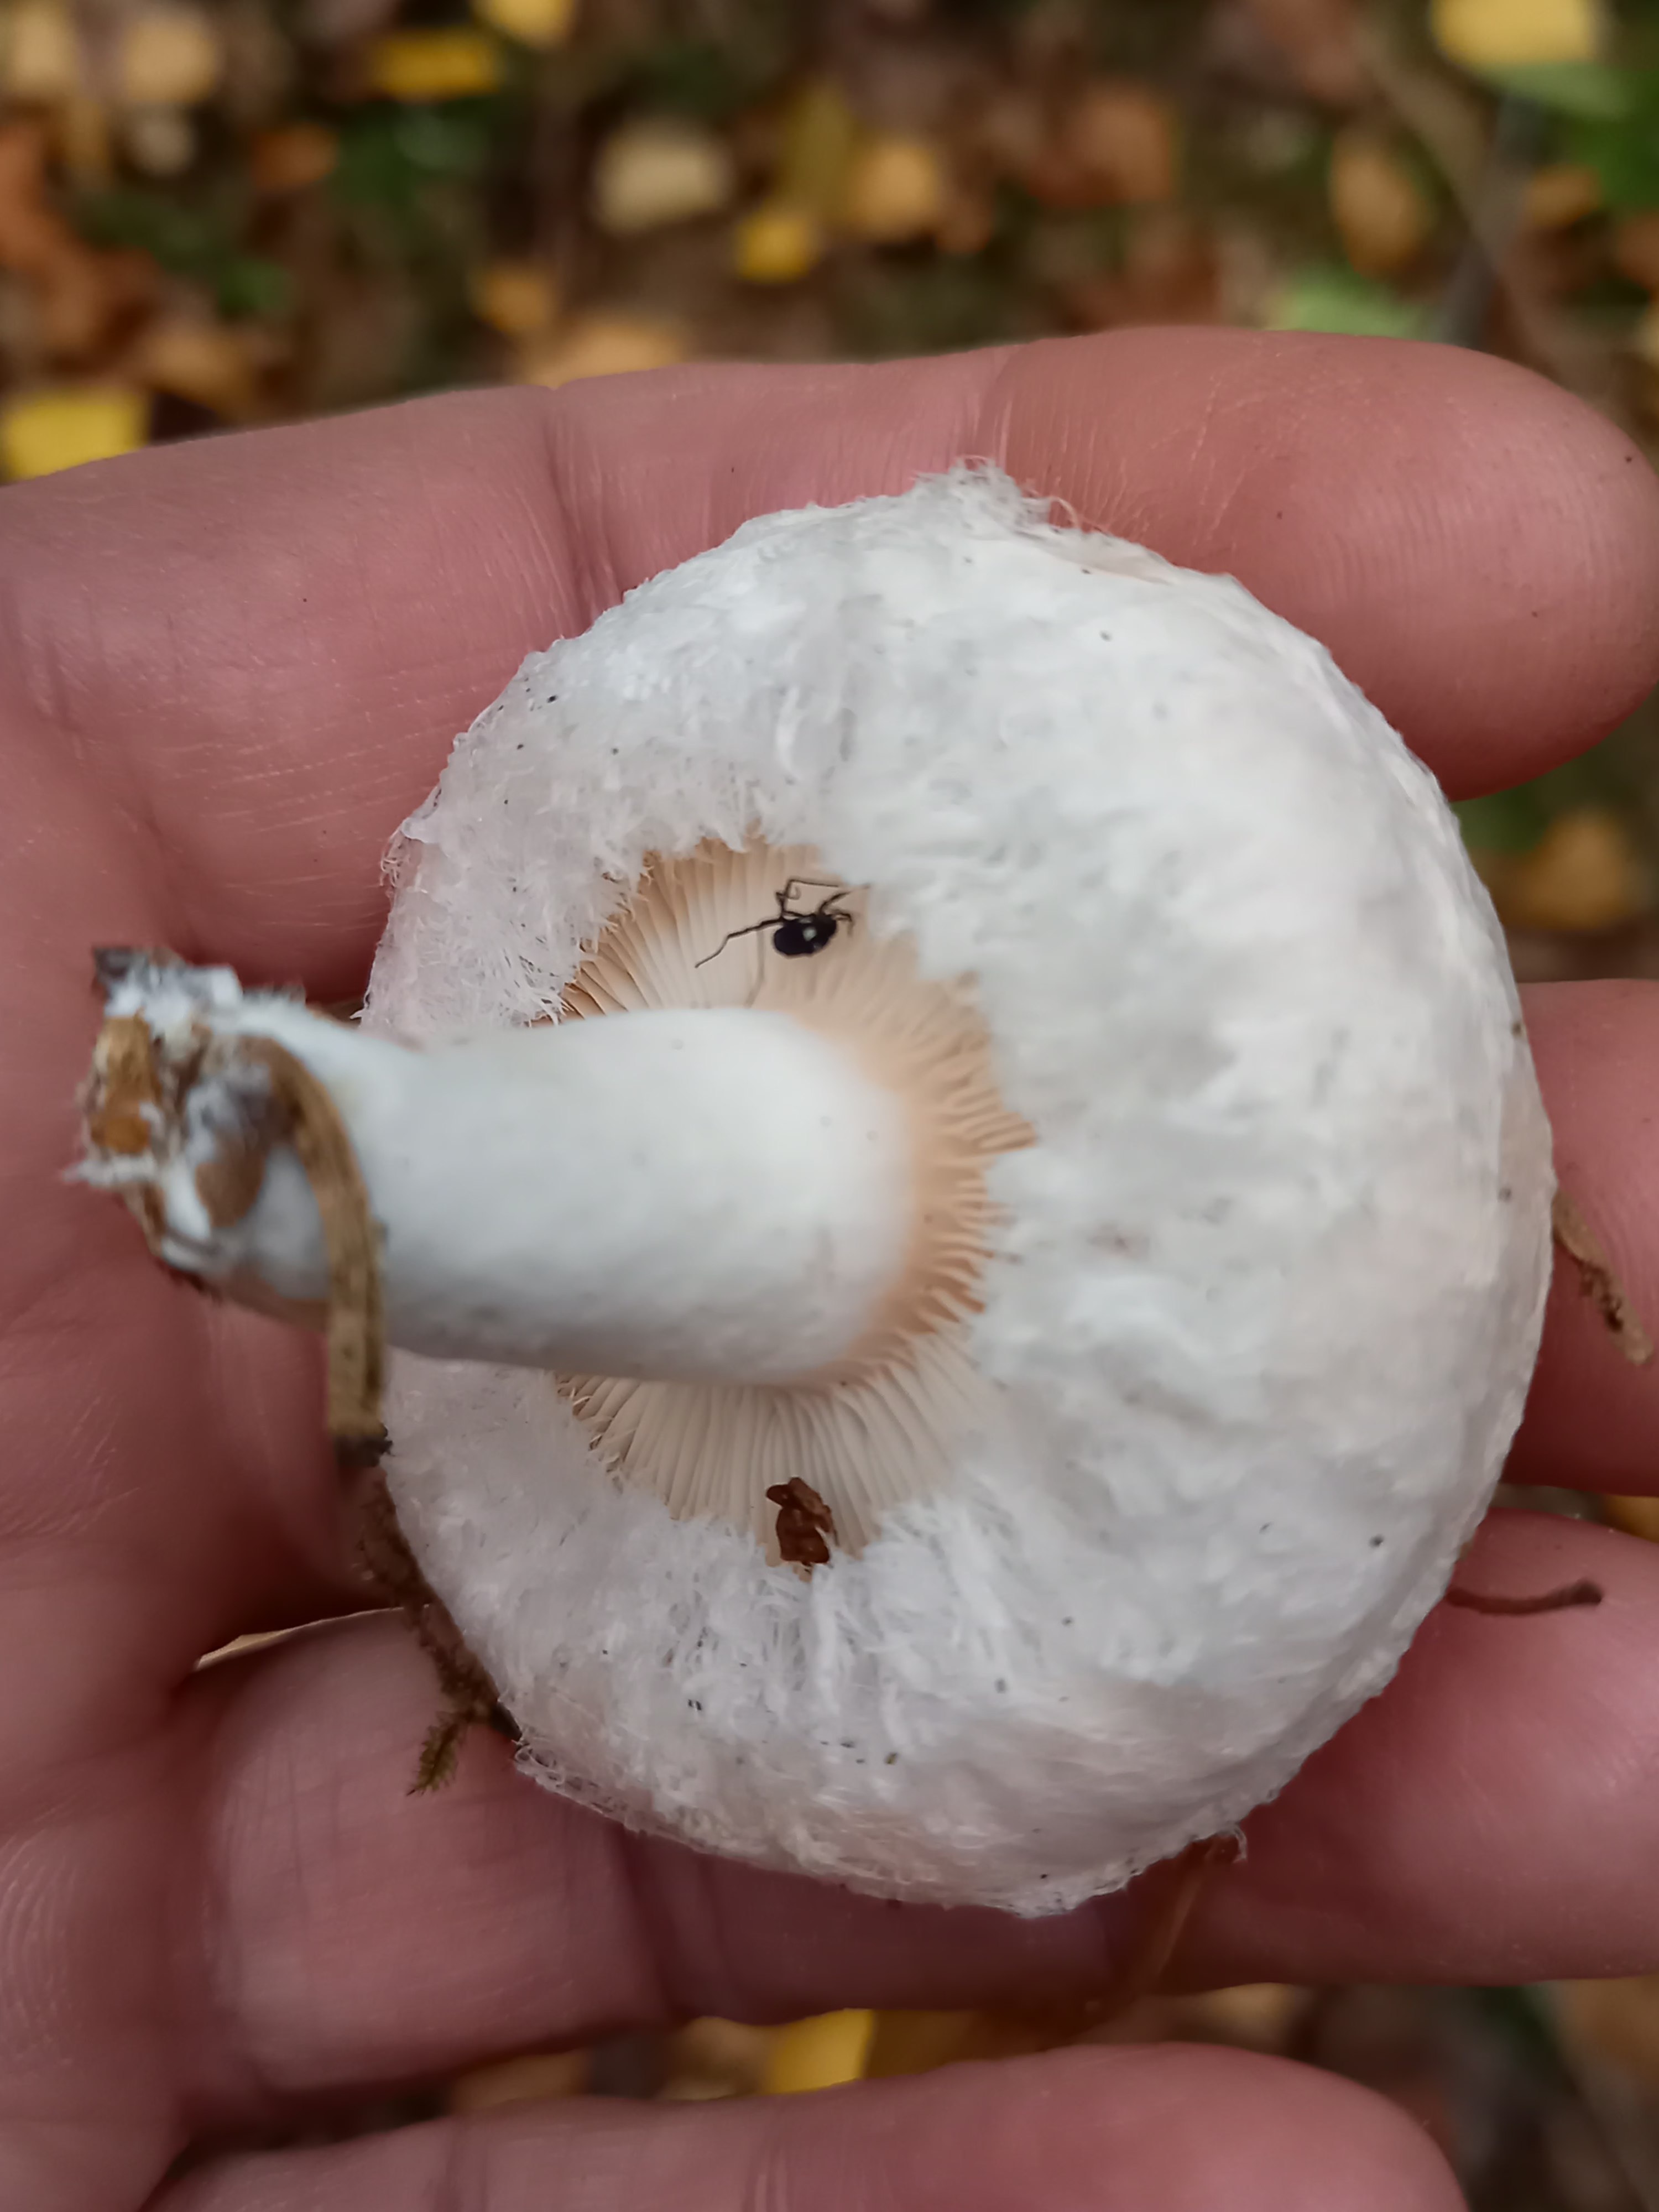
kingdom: Fungi
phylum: Basidiomycota
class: Agaricomycetes
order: Russulales
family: Russulaceae
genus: Lactarius
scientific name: Lactarius torminosus
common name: skægget mælkehat
